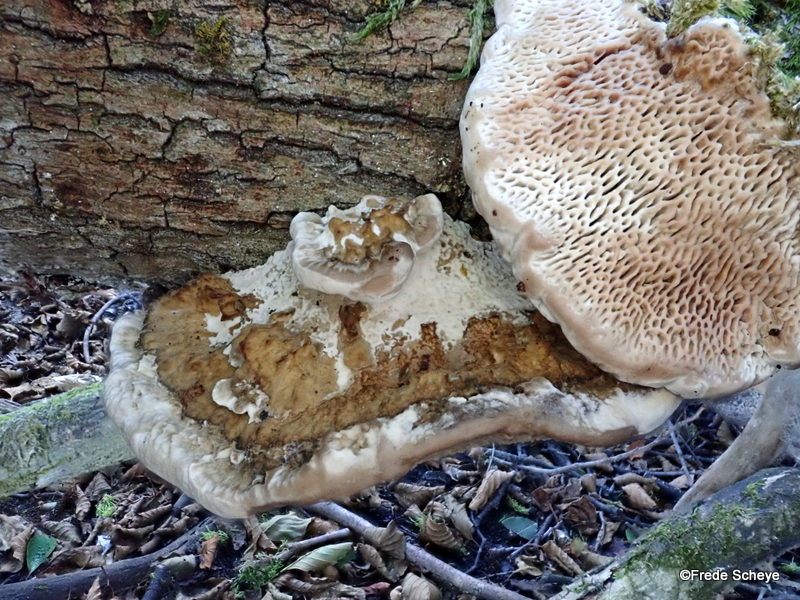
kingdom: Fungi
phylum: Basidiomycota
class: Agaricomycetes
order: Polyporales
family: Polyporaceae
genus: Daedaleopsis
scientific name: Daedaleopsis confragosa
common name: rødmende læderporesvamp
